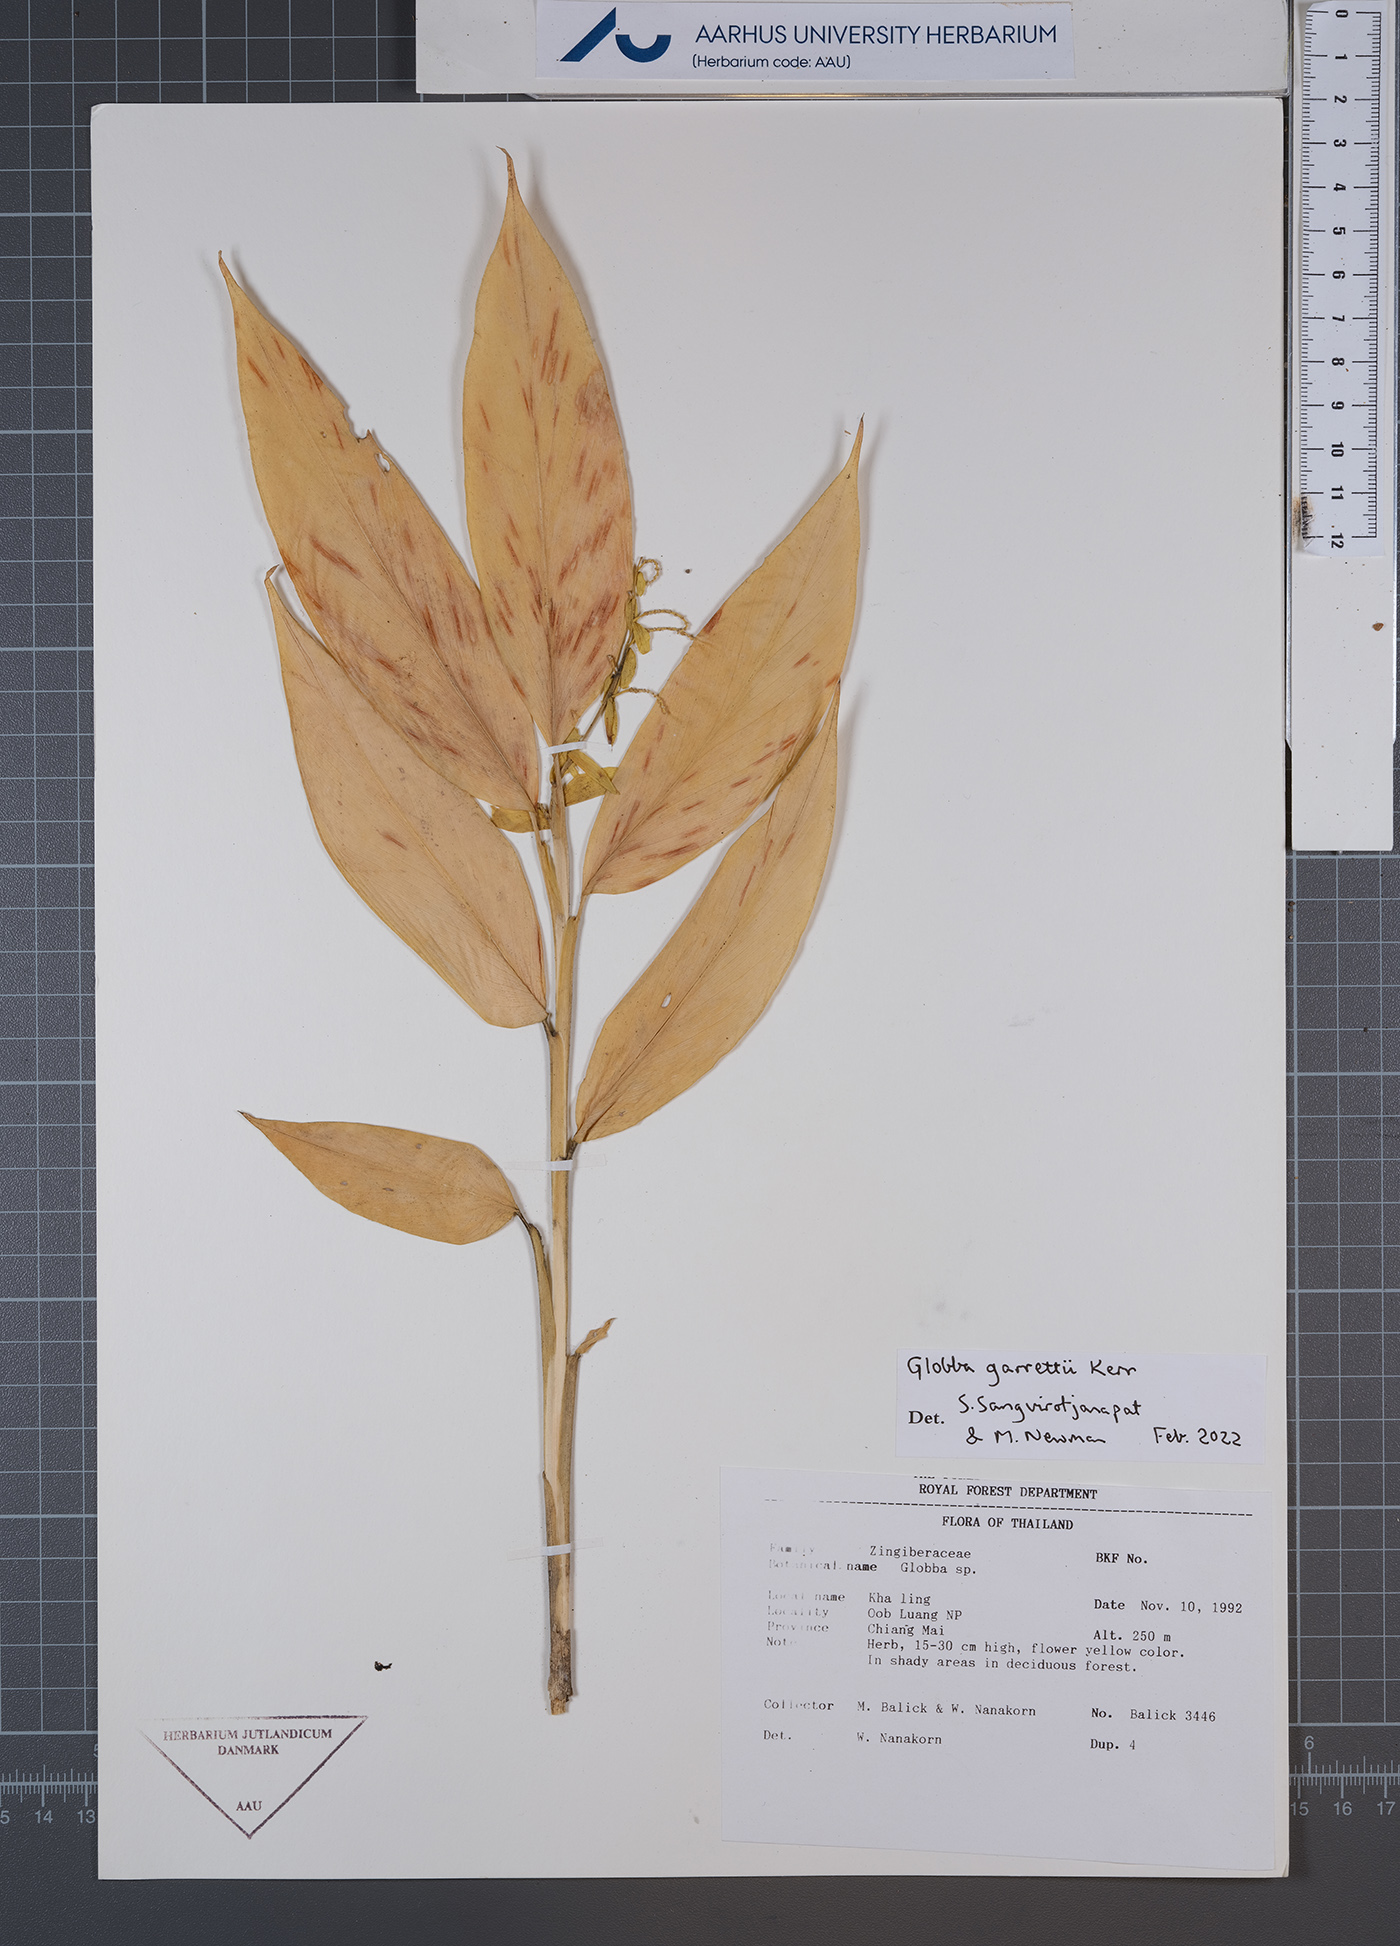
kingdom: Plantae
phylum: Tracheophyta
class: Liliopsida
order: Zingiberales
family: Zingiberaceae
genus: Globba
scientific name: Globba garrettii
